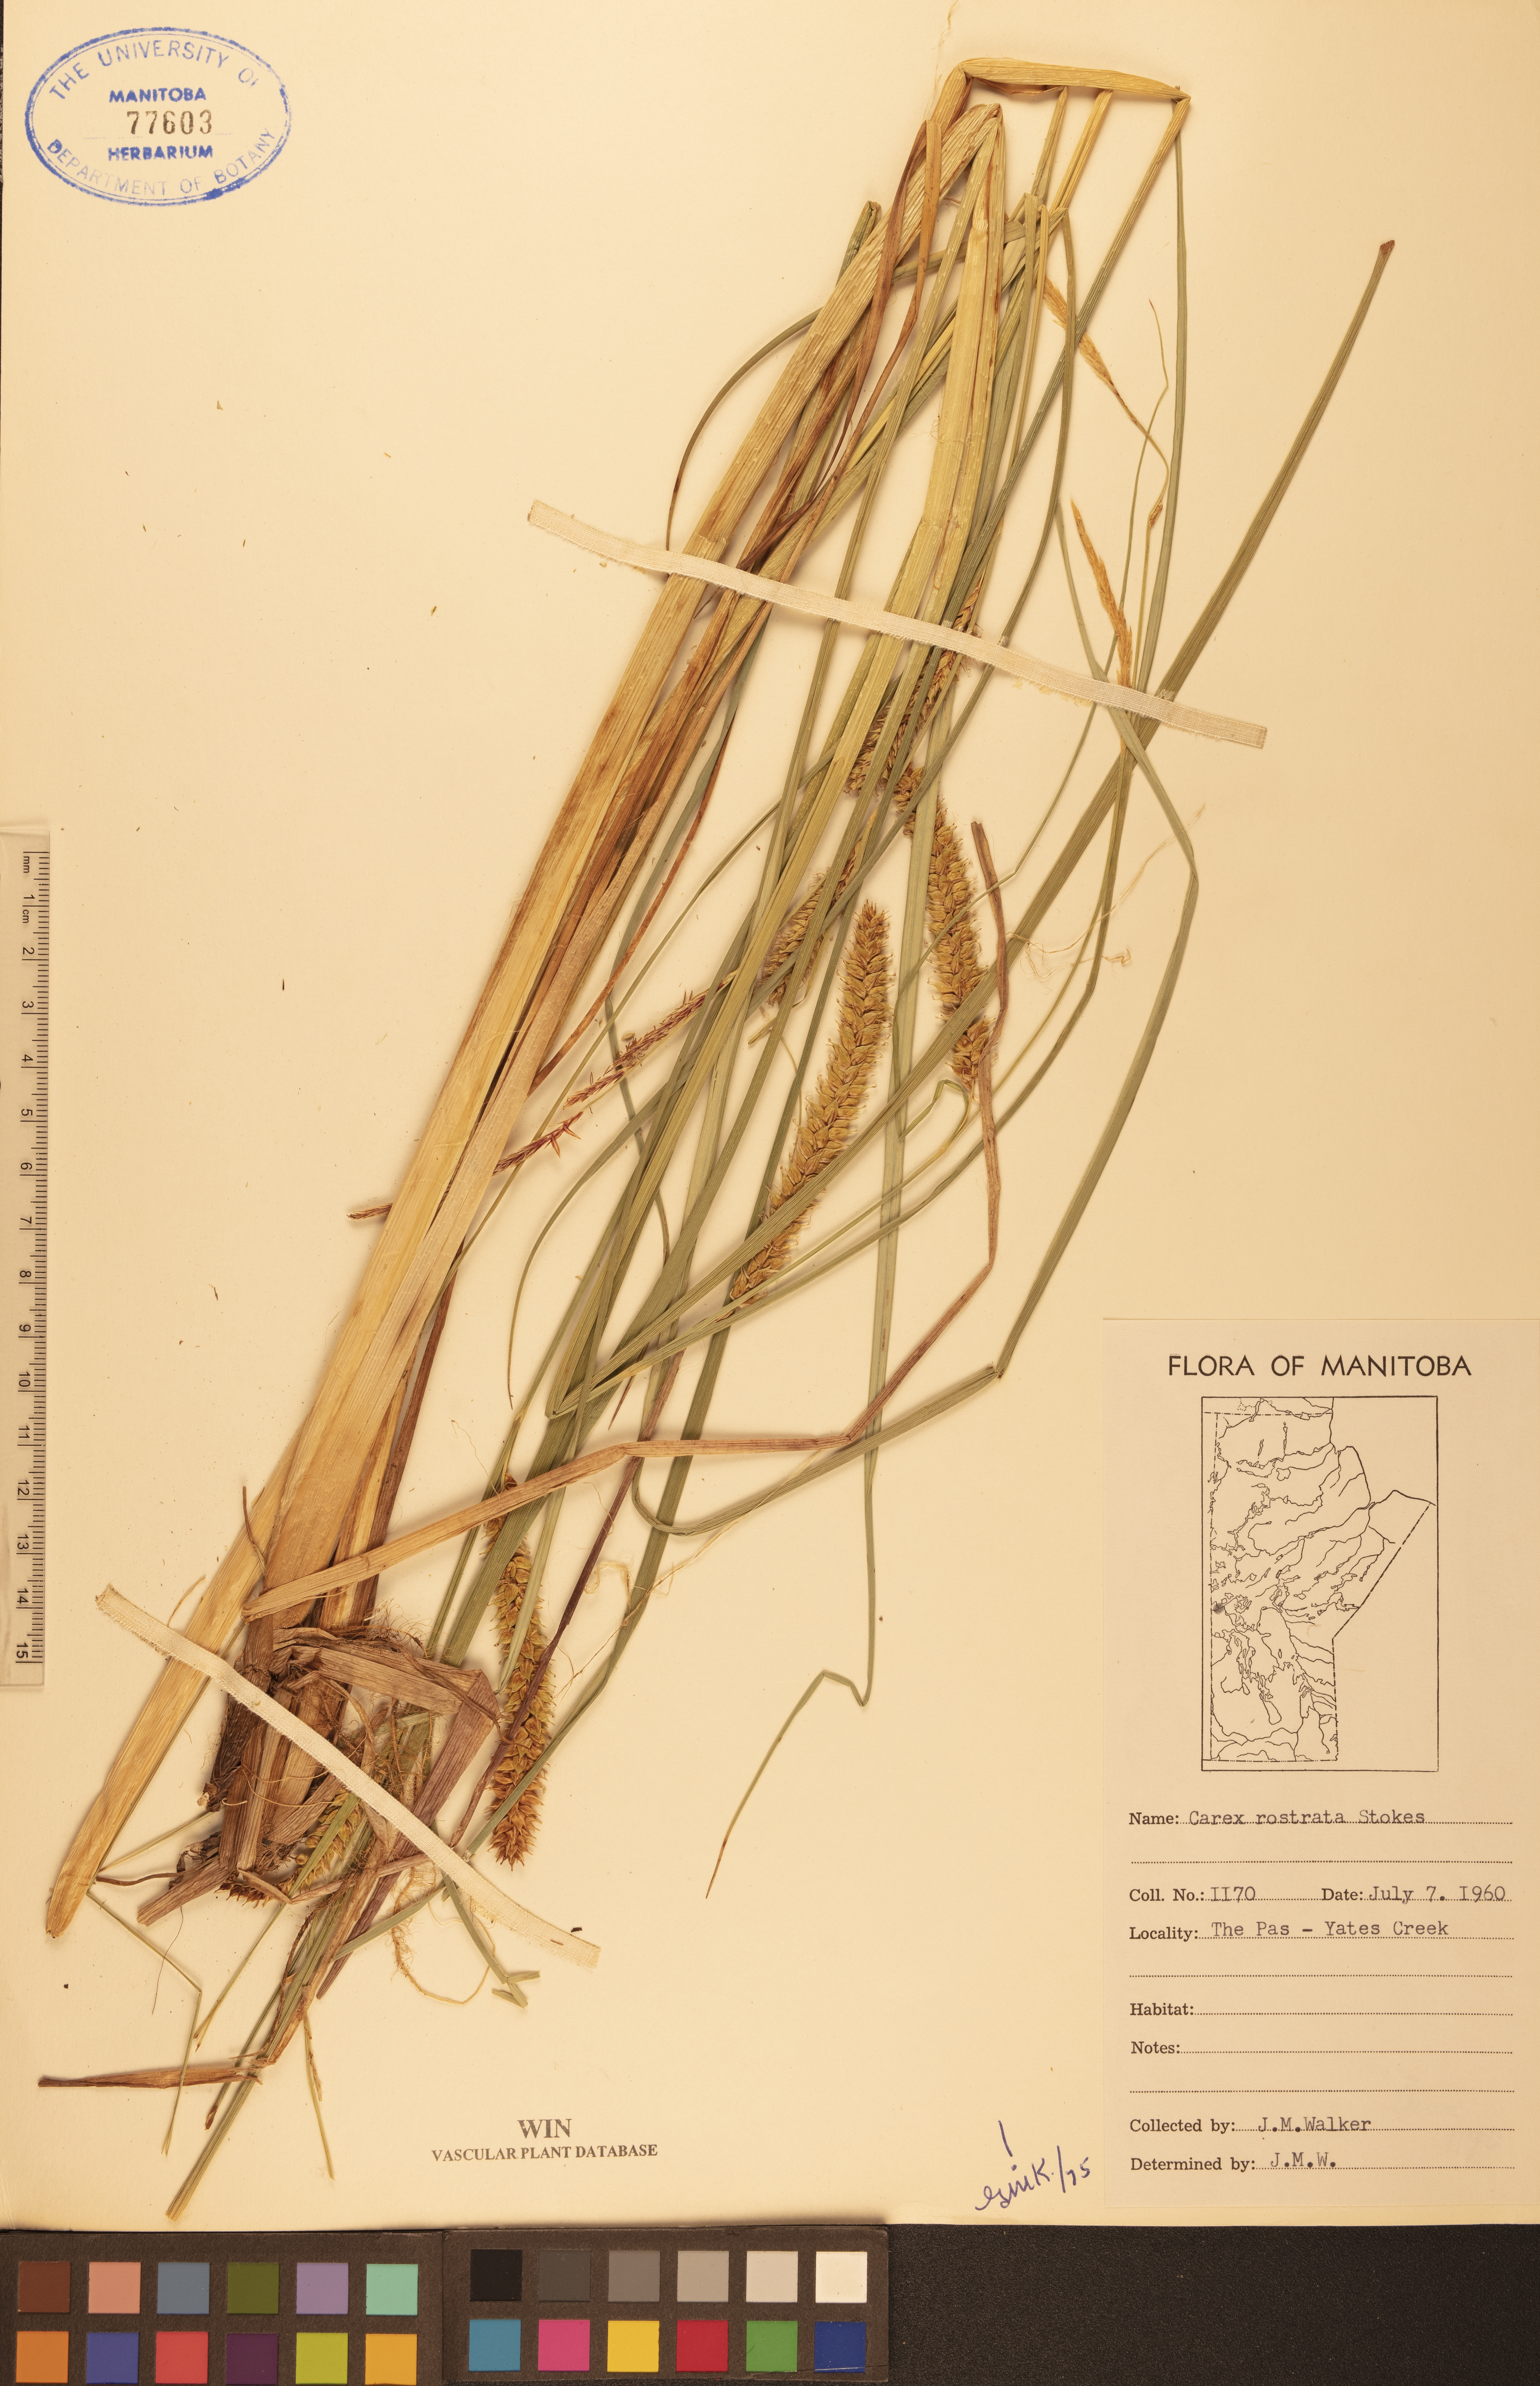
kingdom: Plantae
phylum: Tracheophyta
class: Liliopsida
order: Poales
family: Cyperaceae
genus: Carex
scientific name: Carex rostrata
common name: Bottle sedge
